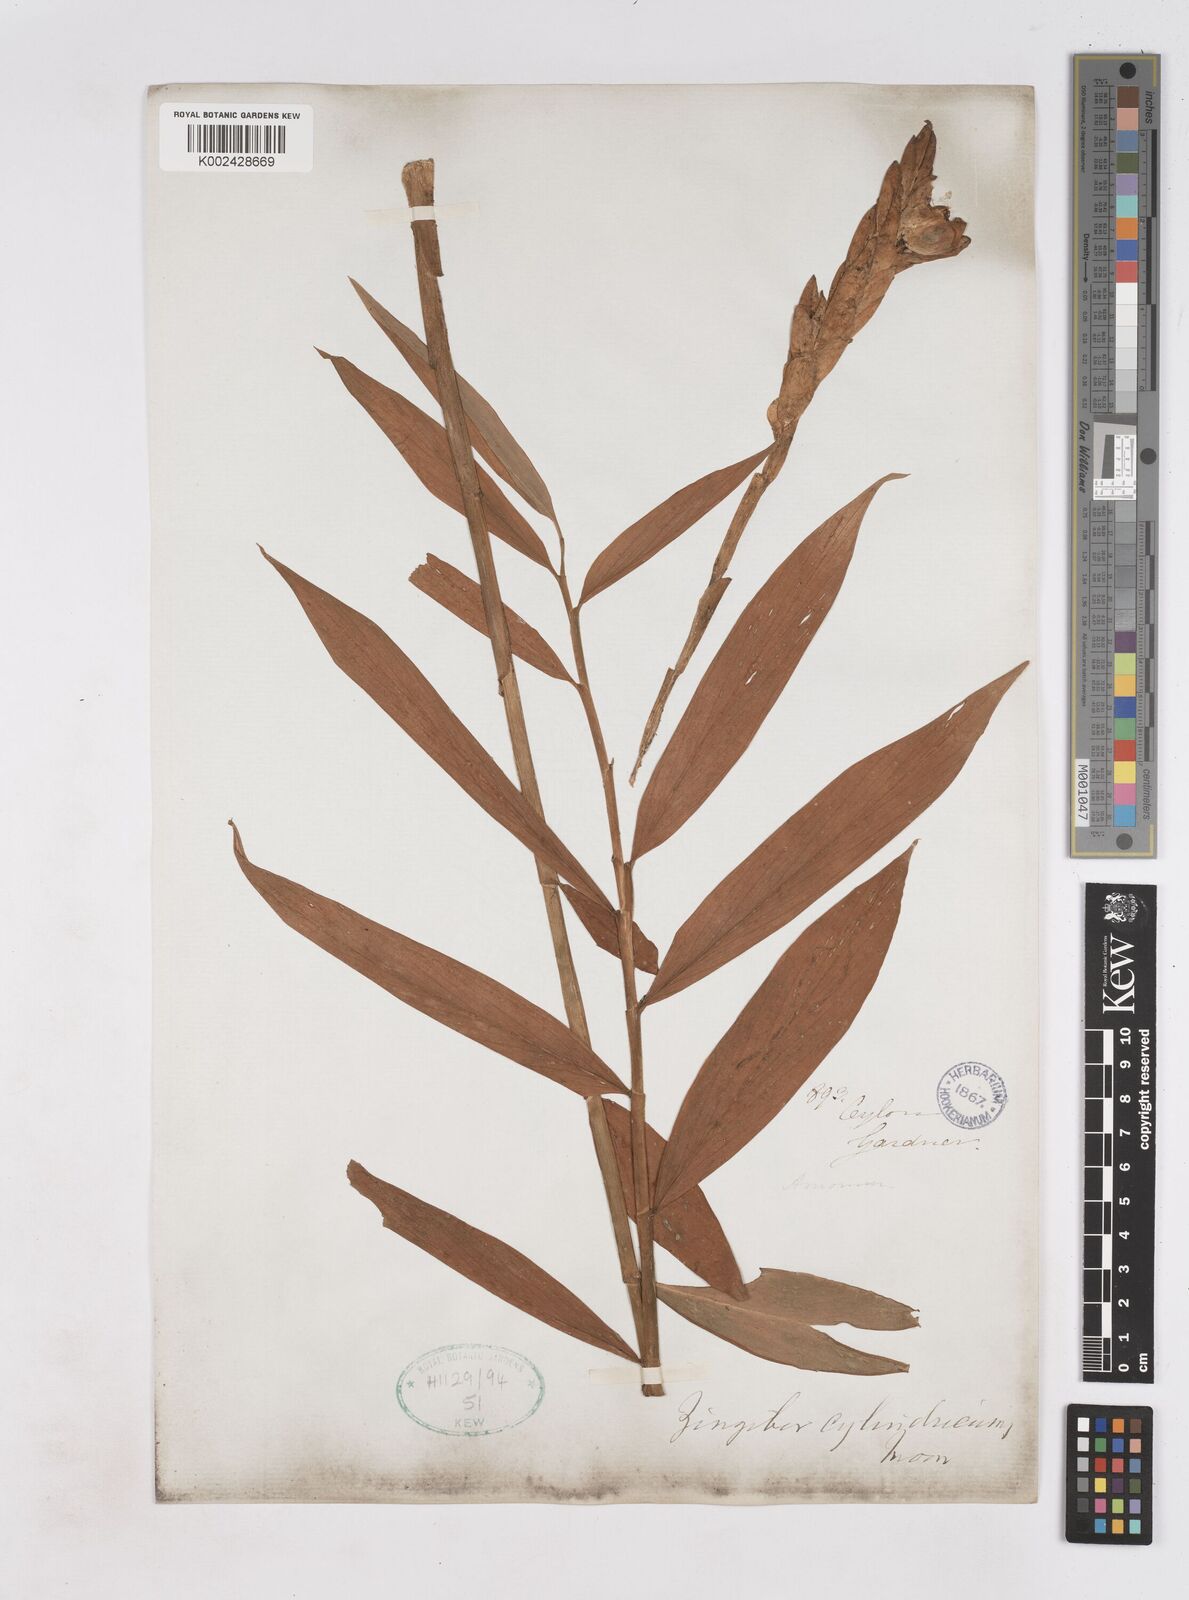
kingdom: Plantae
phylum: Tracheophyta
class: Liliopsida
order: Zingiberales
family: Zingiberaceae
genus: Zingiber
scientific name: Zingiber cylindricum
